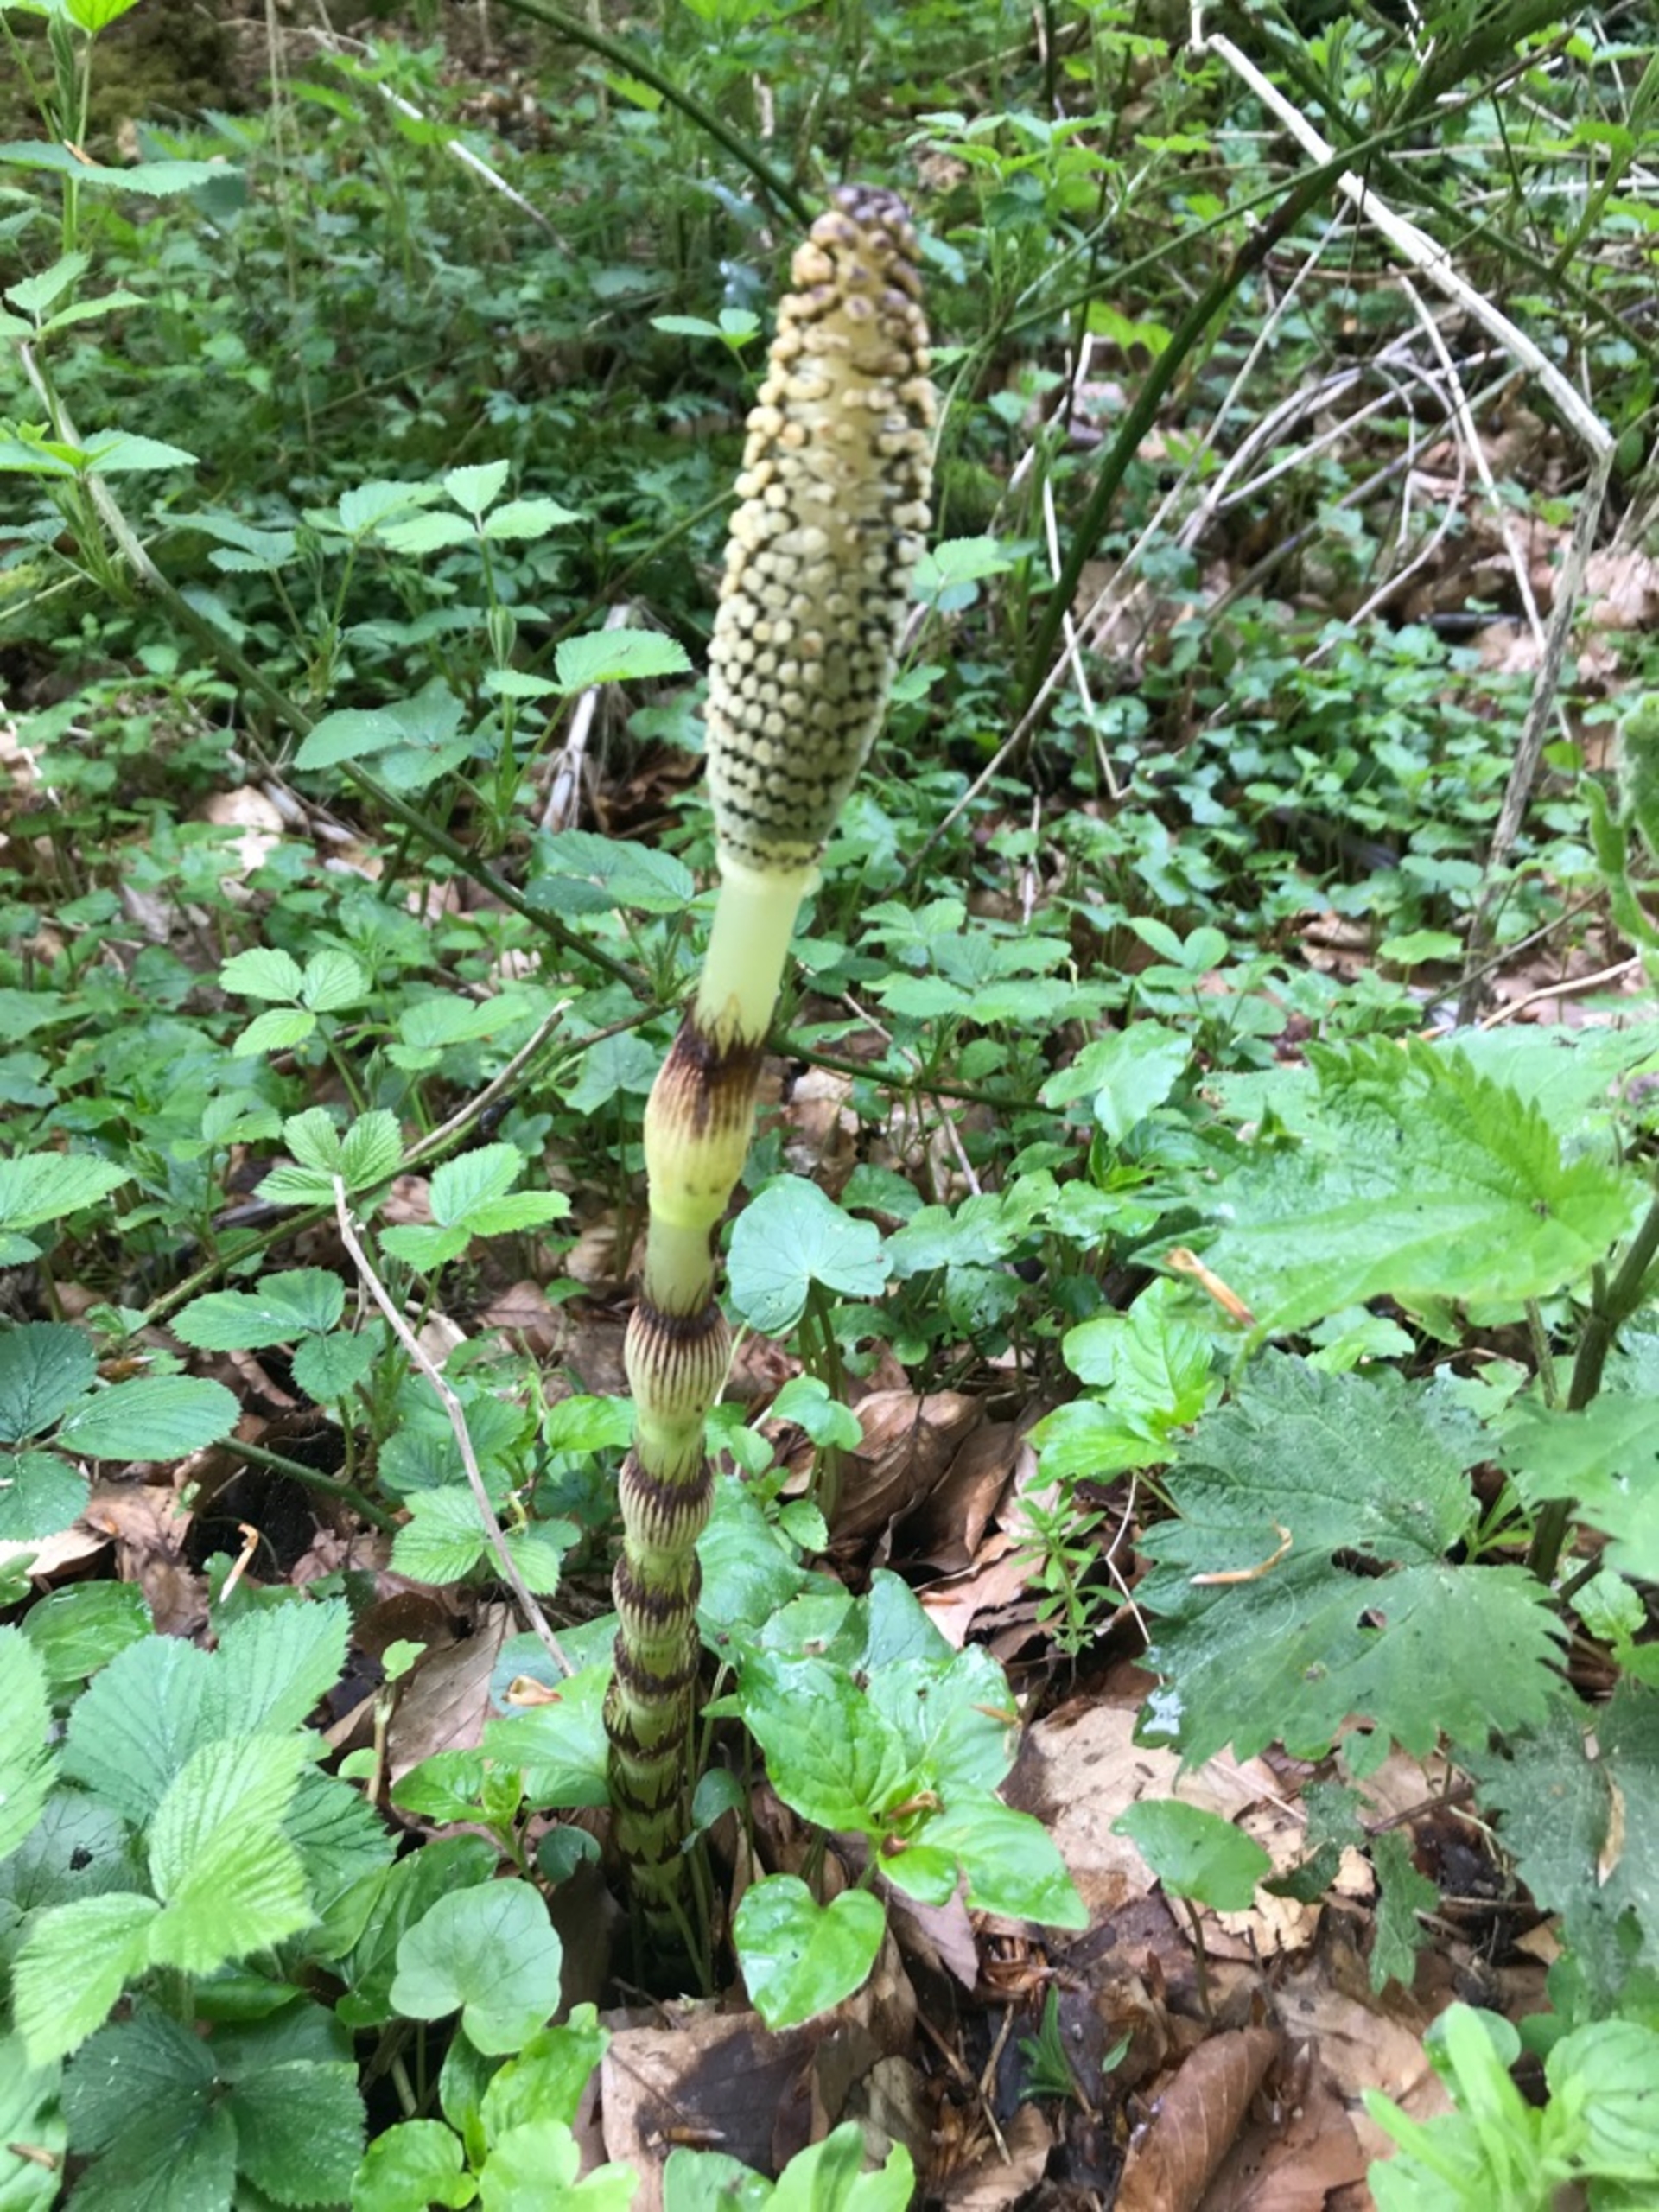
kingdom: Plantae
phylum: Tracheophyta
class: Polypodiopsida
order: Equisetales
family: Equisetaceae
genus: Equisetum
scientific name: Equisetum telmateia
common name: Elfenbens-padderok
